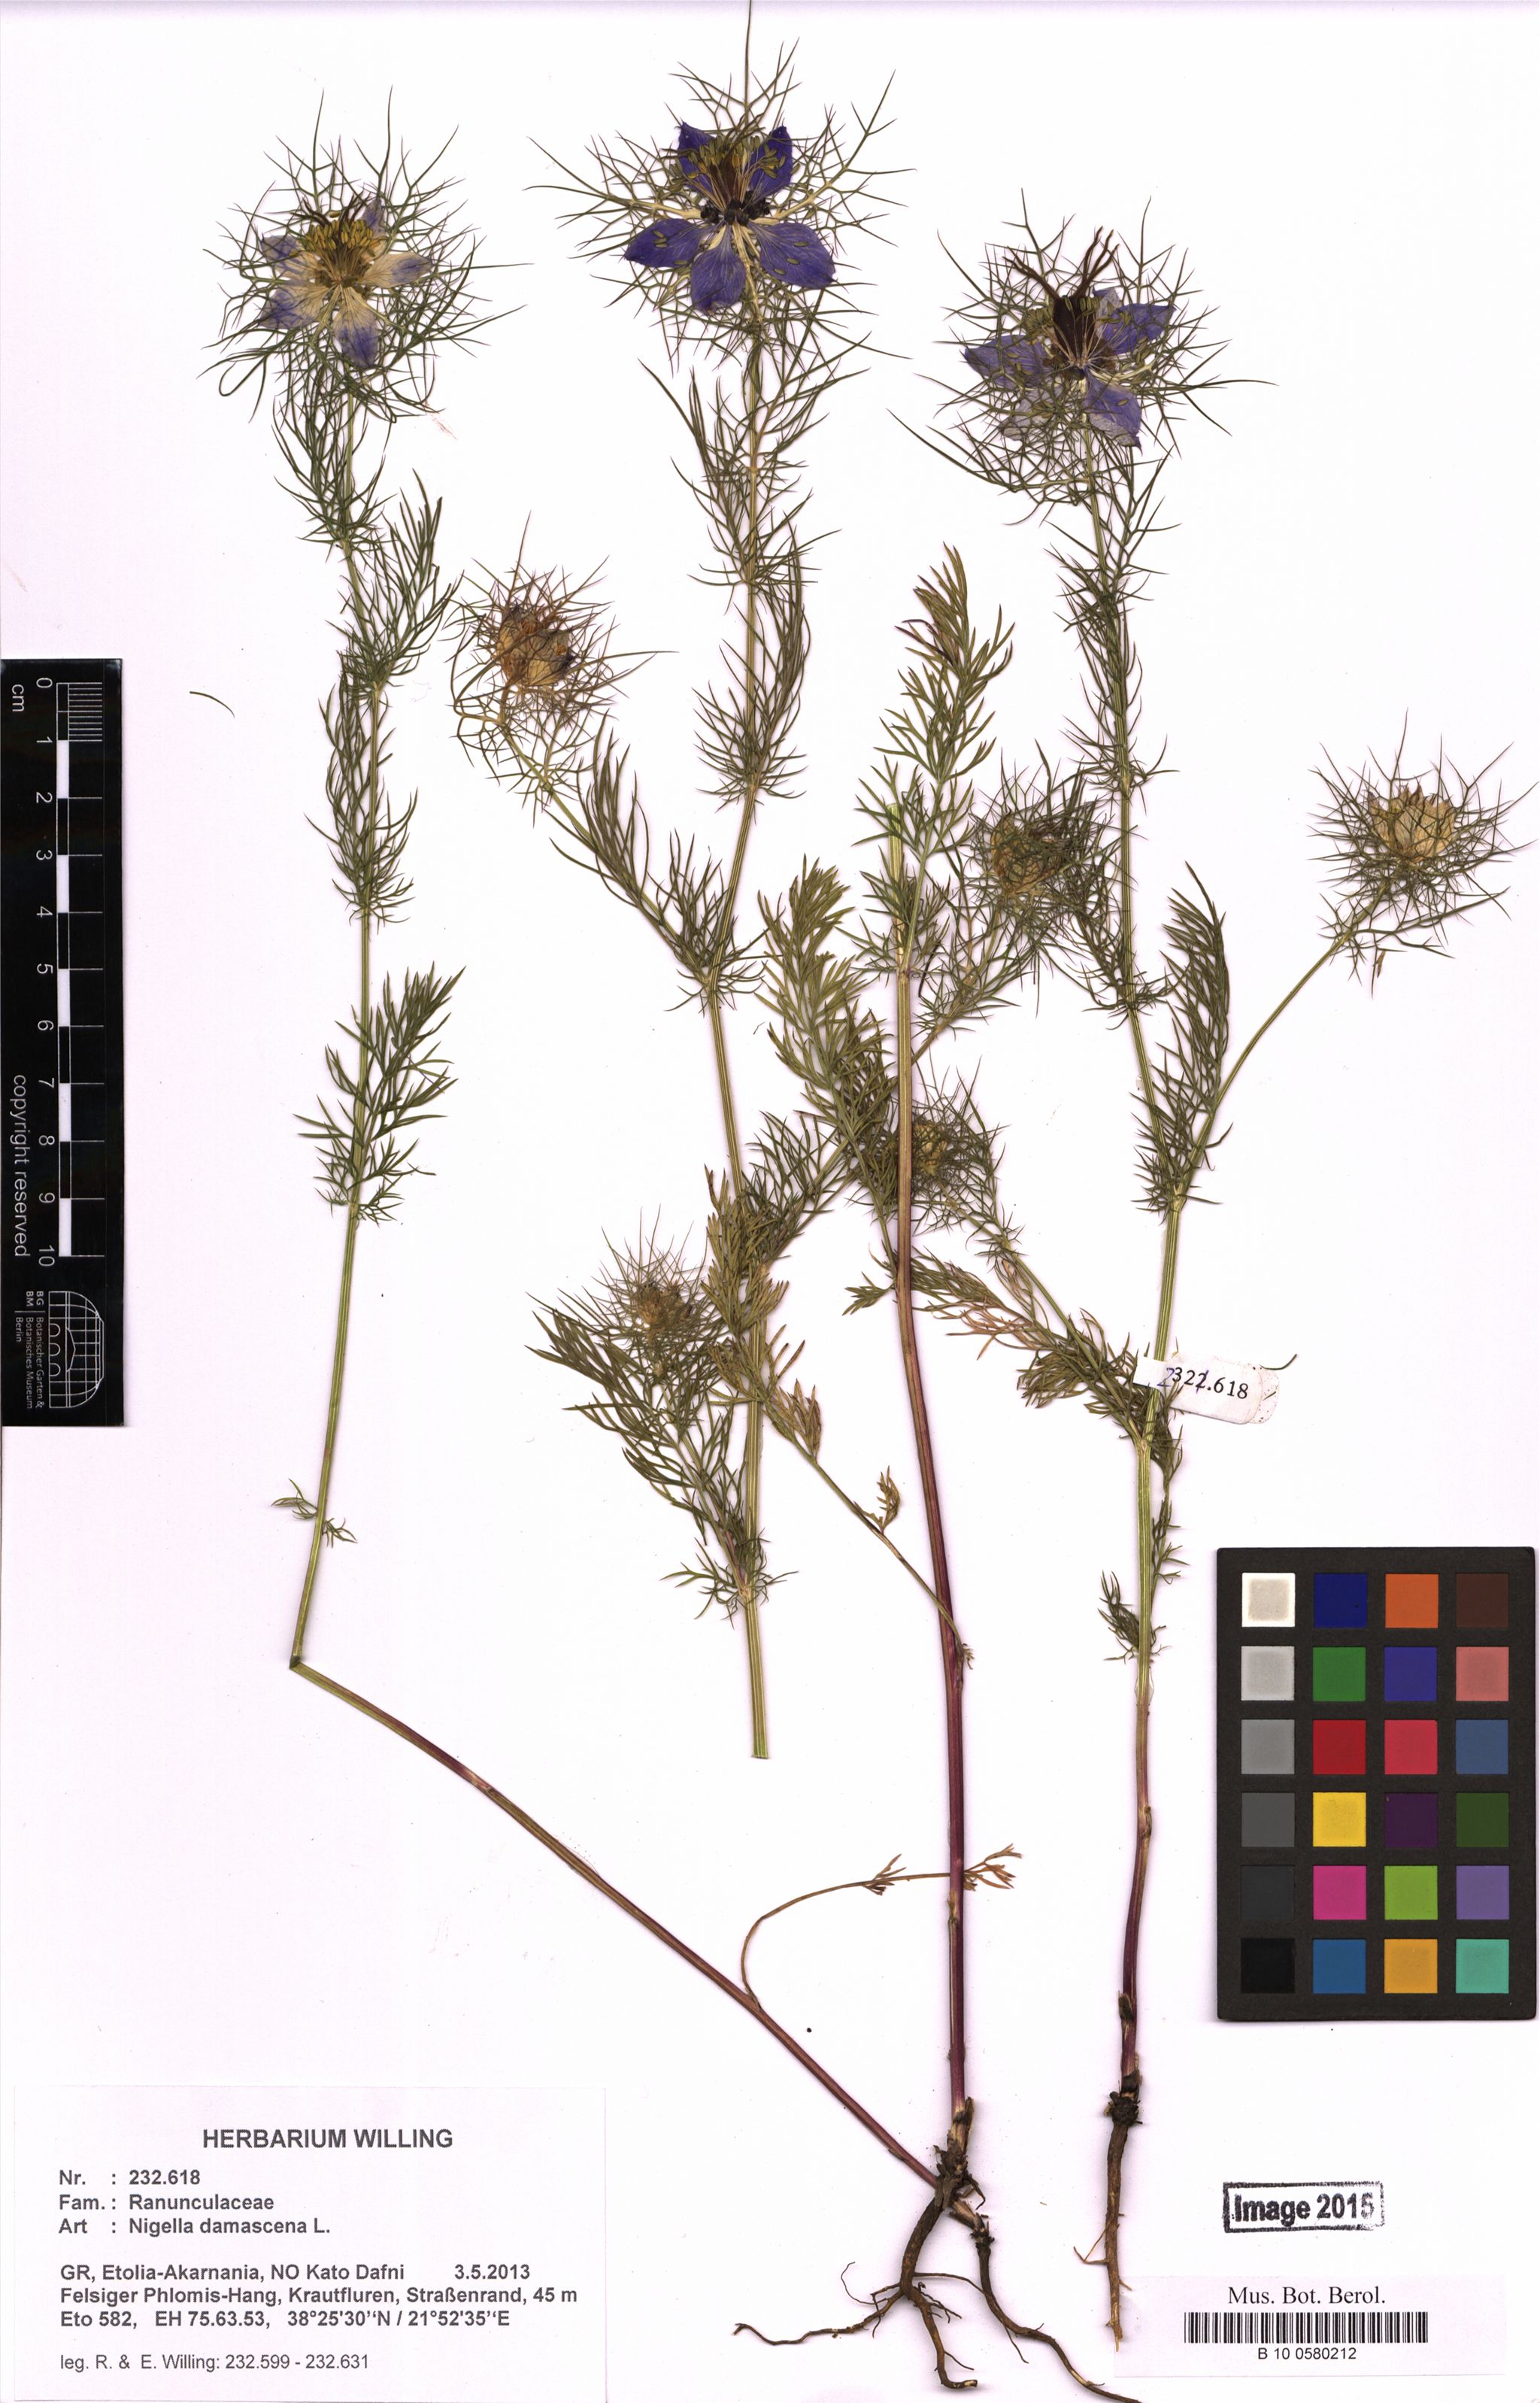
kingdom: Plantae
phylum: Tracheophyta
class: Magnoliopsida
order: Ranunculales
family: Ranunculaceae
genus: Nigella
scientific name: Nigella damascena
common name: Love-in-a-mist
